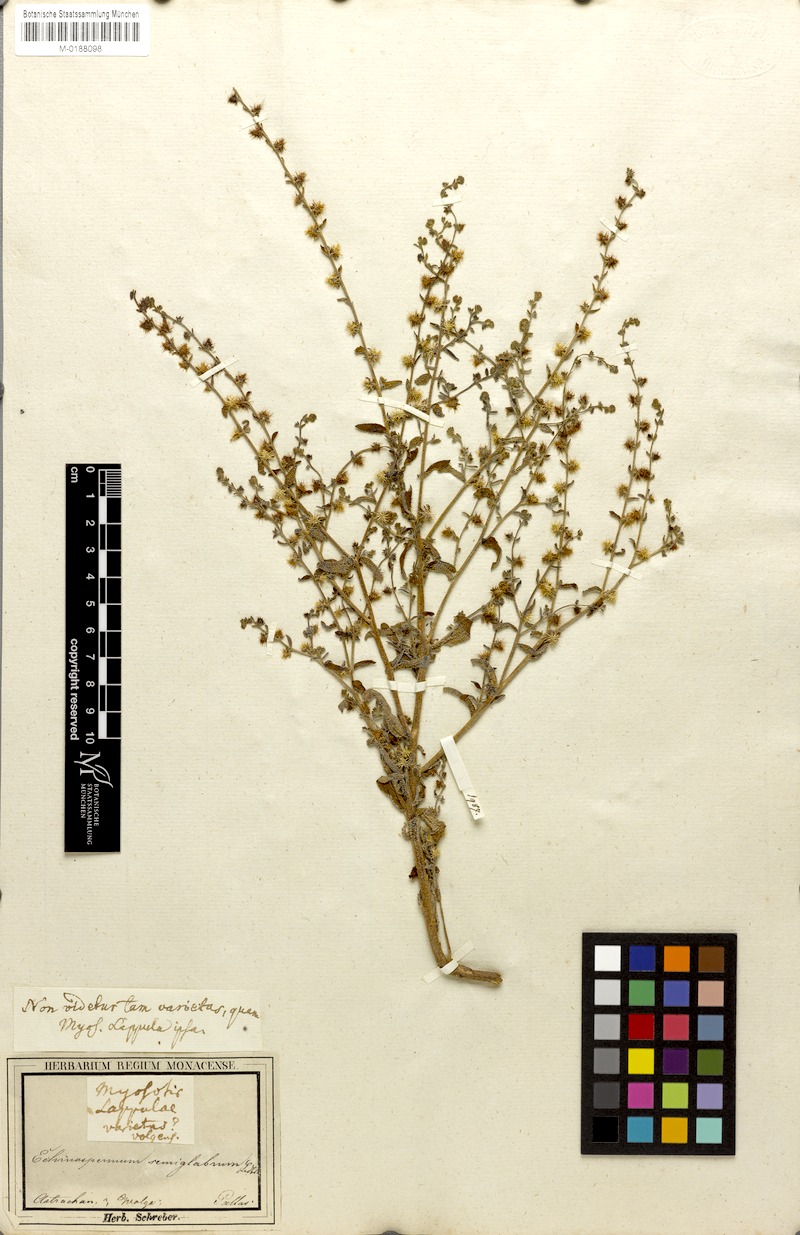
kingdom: Plantae
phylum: Tracheophyta
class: Magnoliopsida
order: Boraginales
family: Boraginaceae
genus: Lappula
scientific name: Lappula marginata
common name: Margined stickseed
